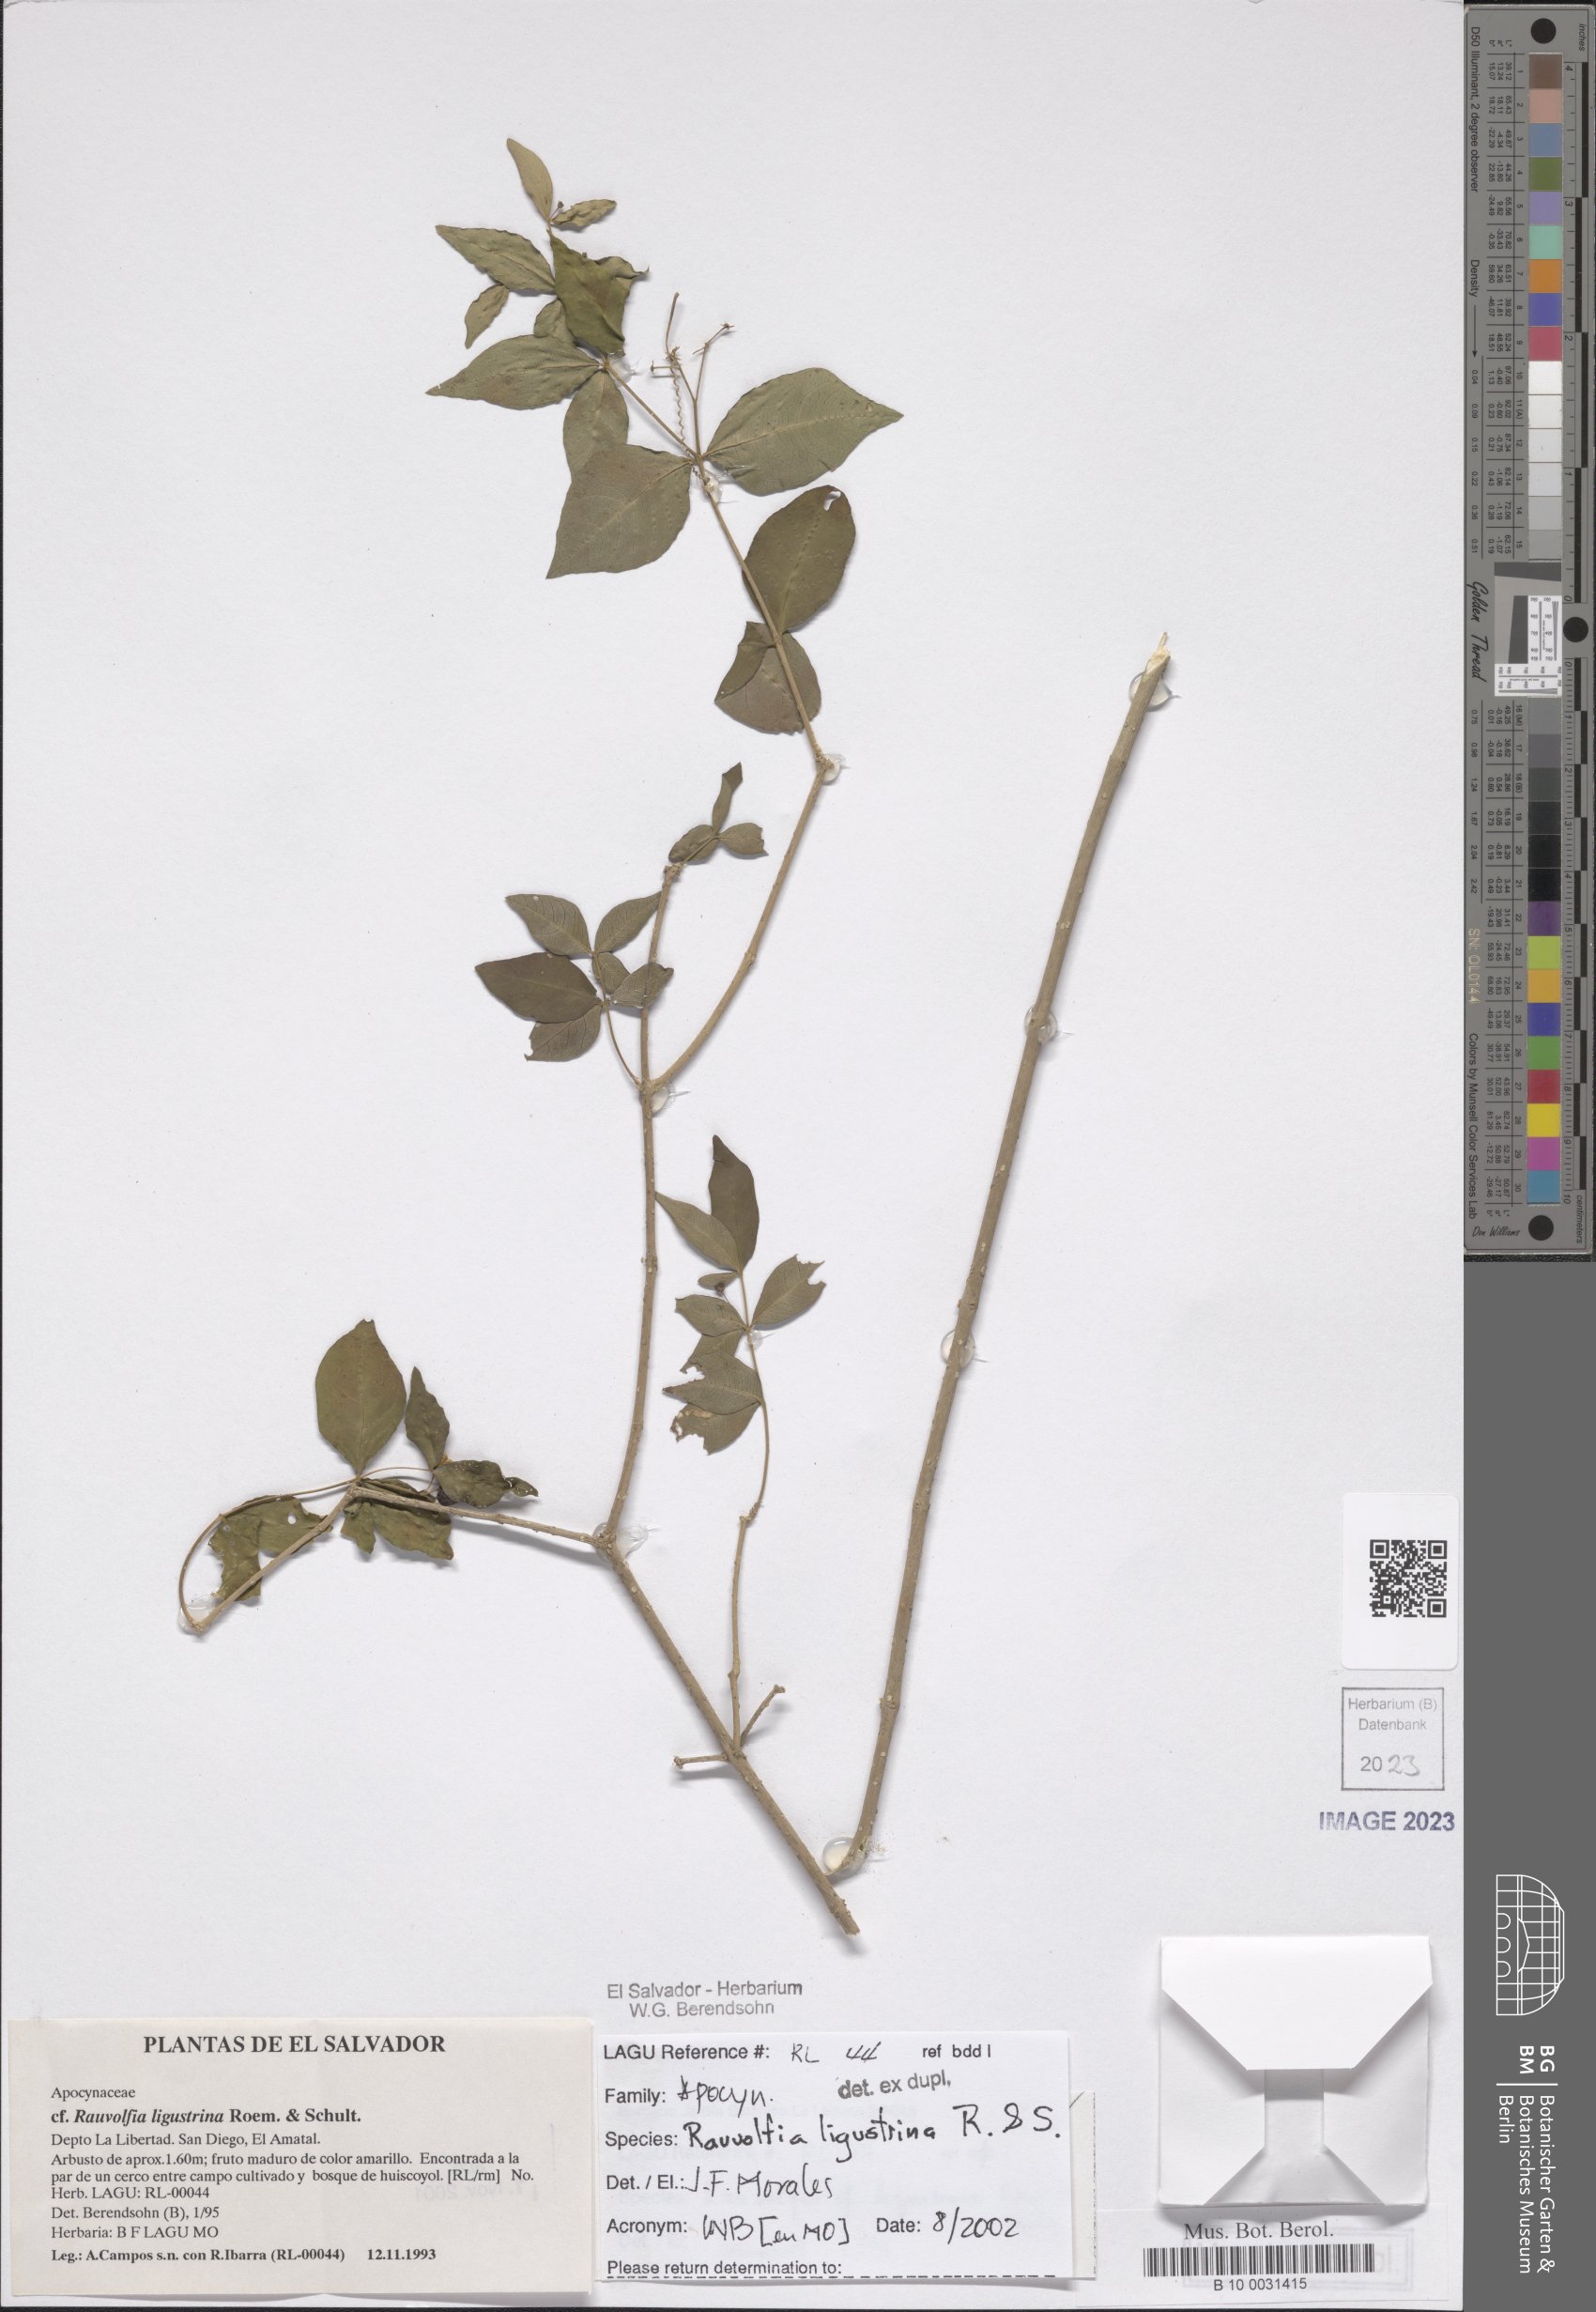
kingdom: Plantae
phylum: Tracheophyta
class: Magnoliopsida
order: Gentianales
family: Apocynaceae
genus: Rauvolfia
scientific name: Rauvolfia ligustrina
